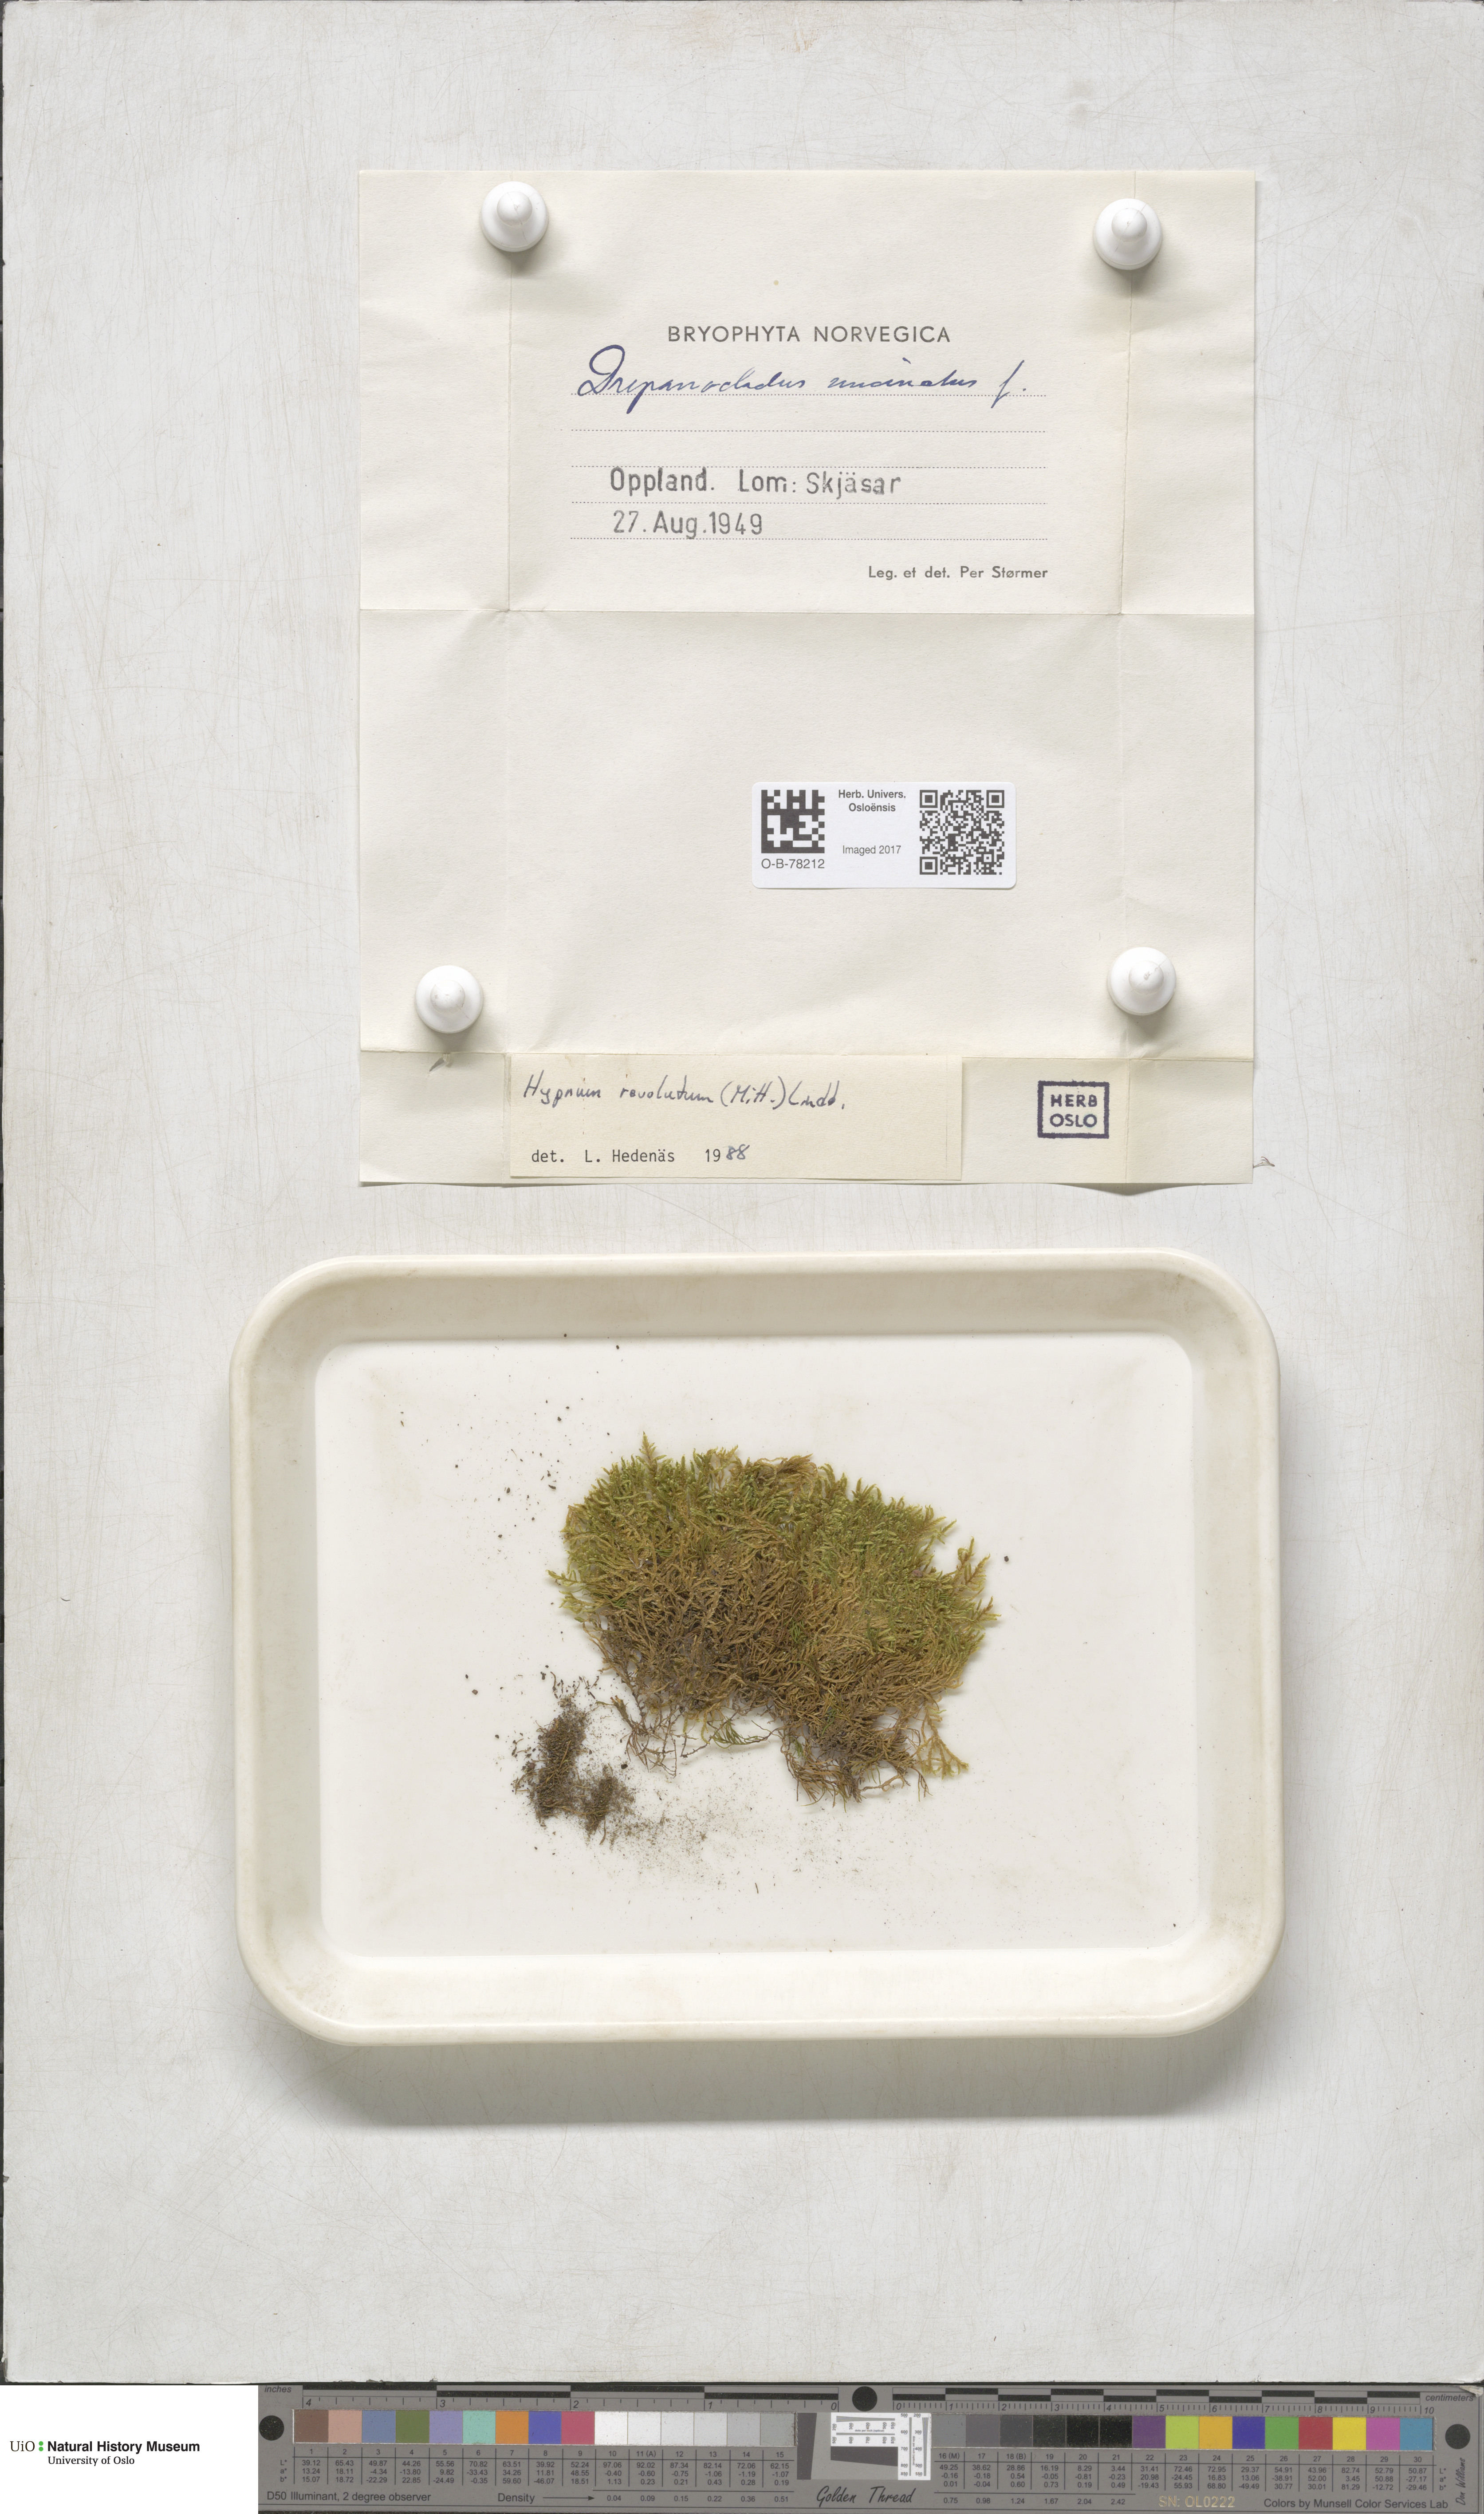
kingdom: Plantae
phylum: Bryophyta
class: Bryopsida
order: Hypnales
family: Pylaisiaceae
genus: Roaldia
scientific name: Roaldia revoluta
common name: Revolute plait-moss
